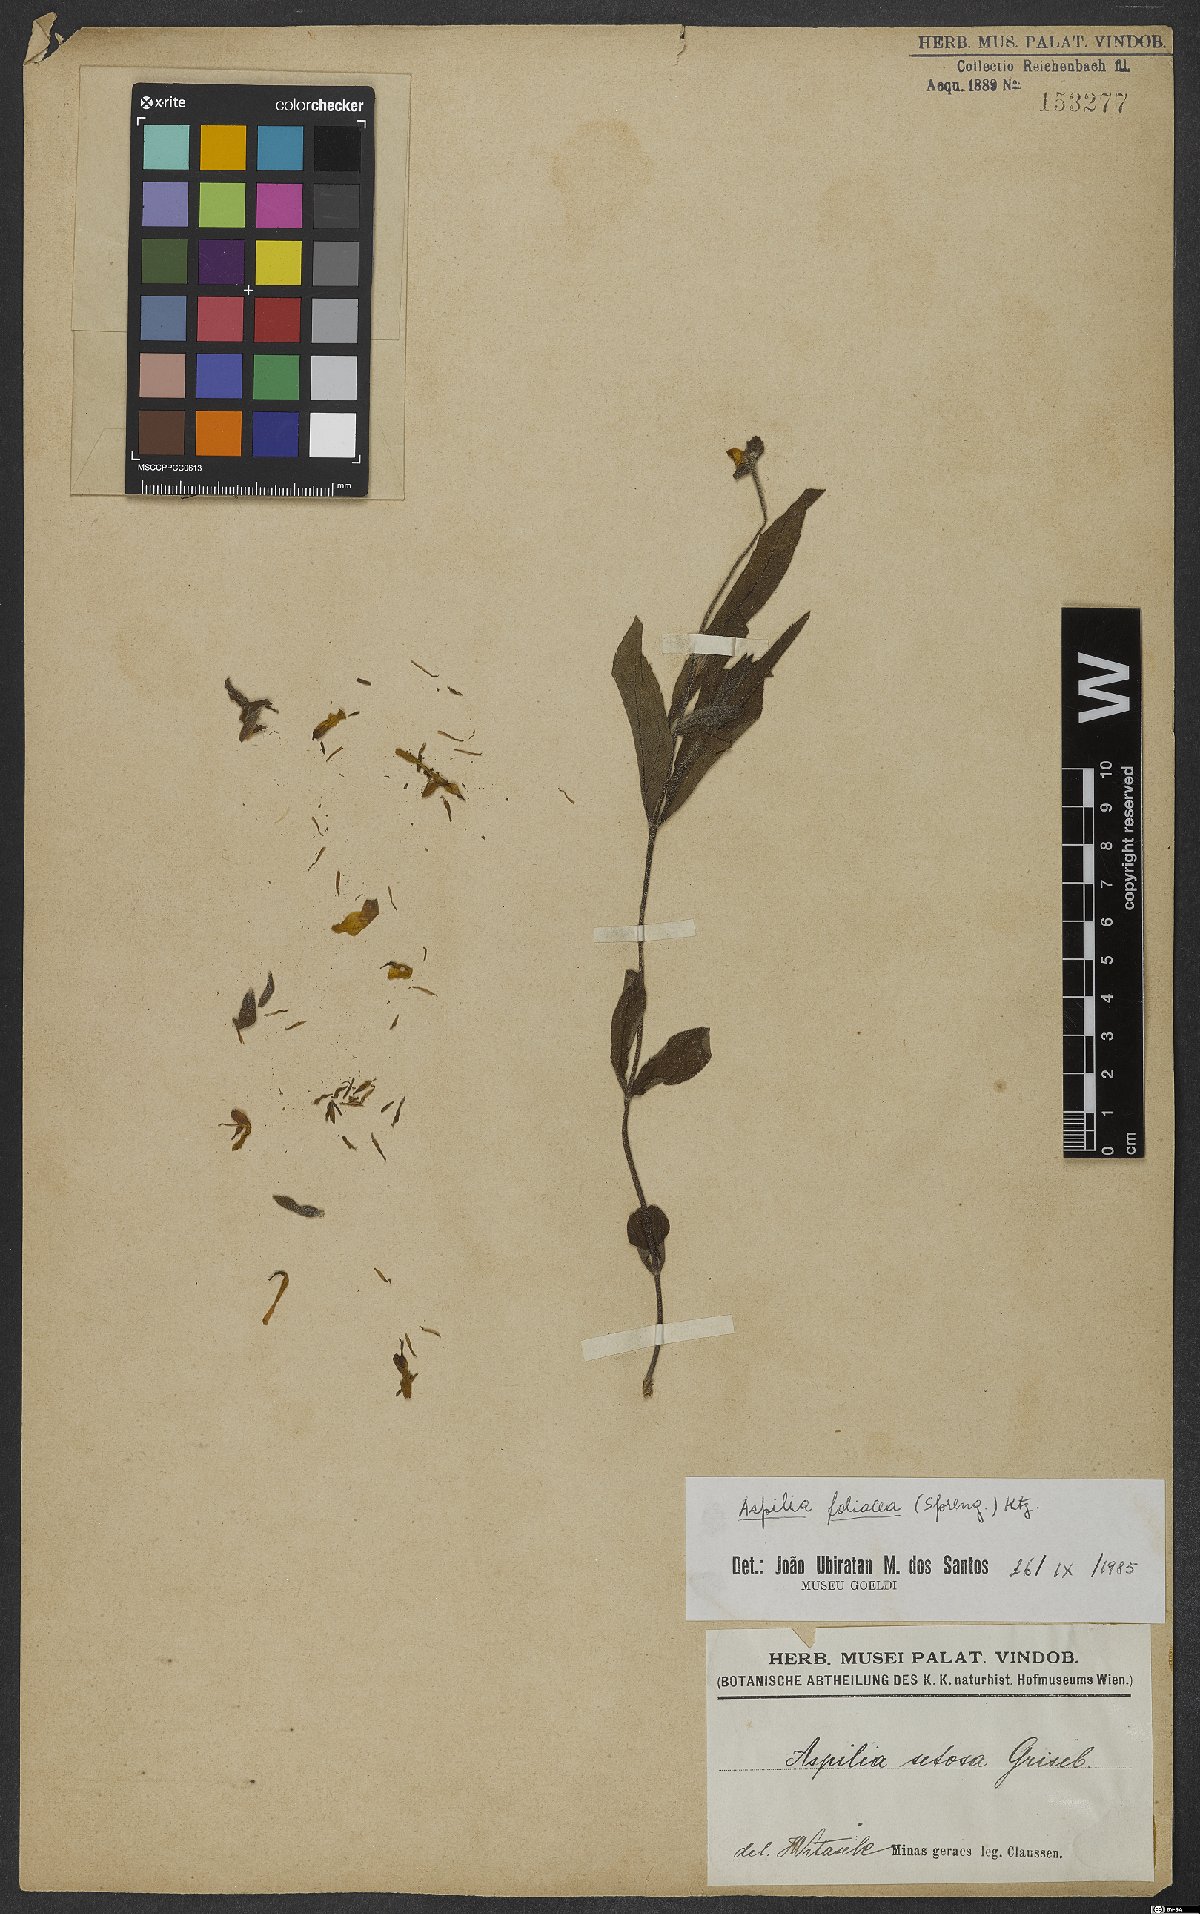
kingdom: Plantae
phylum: Tracheophyta
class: Magnoliopsida
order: Asterales
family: Asteraceae
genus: Aspilia
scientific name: Aspilia foliosa
